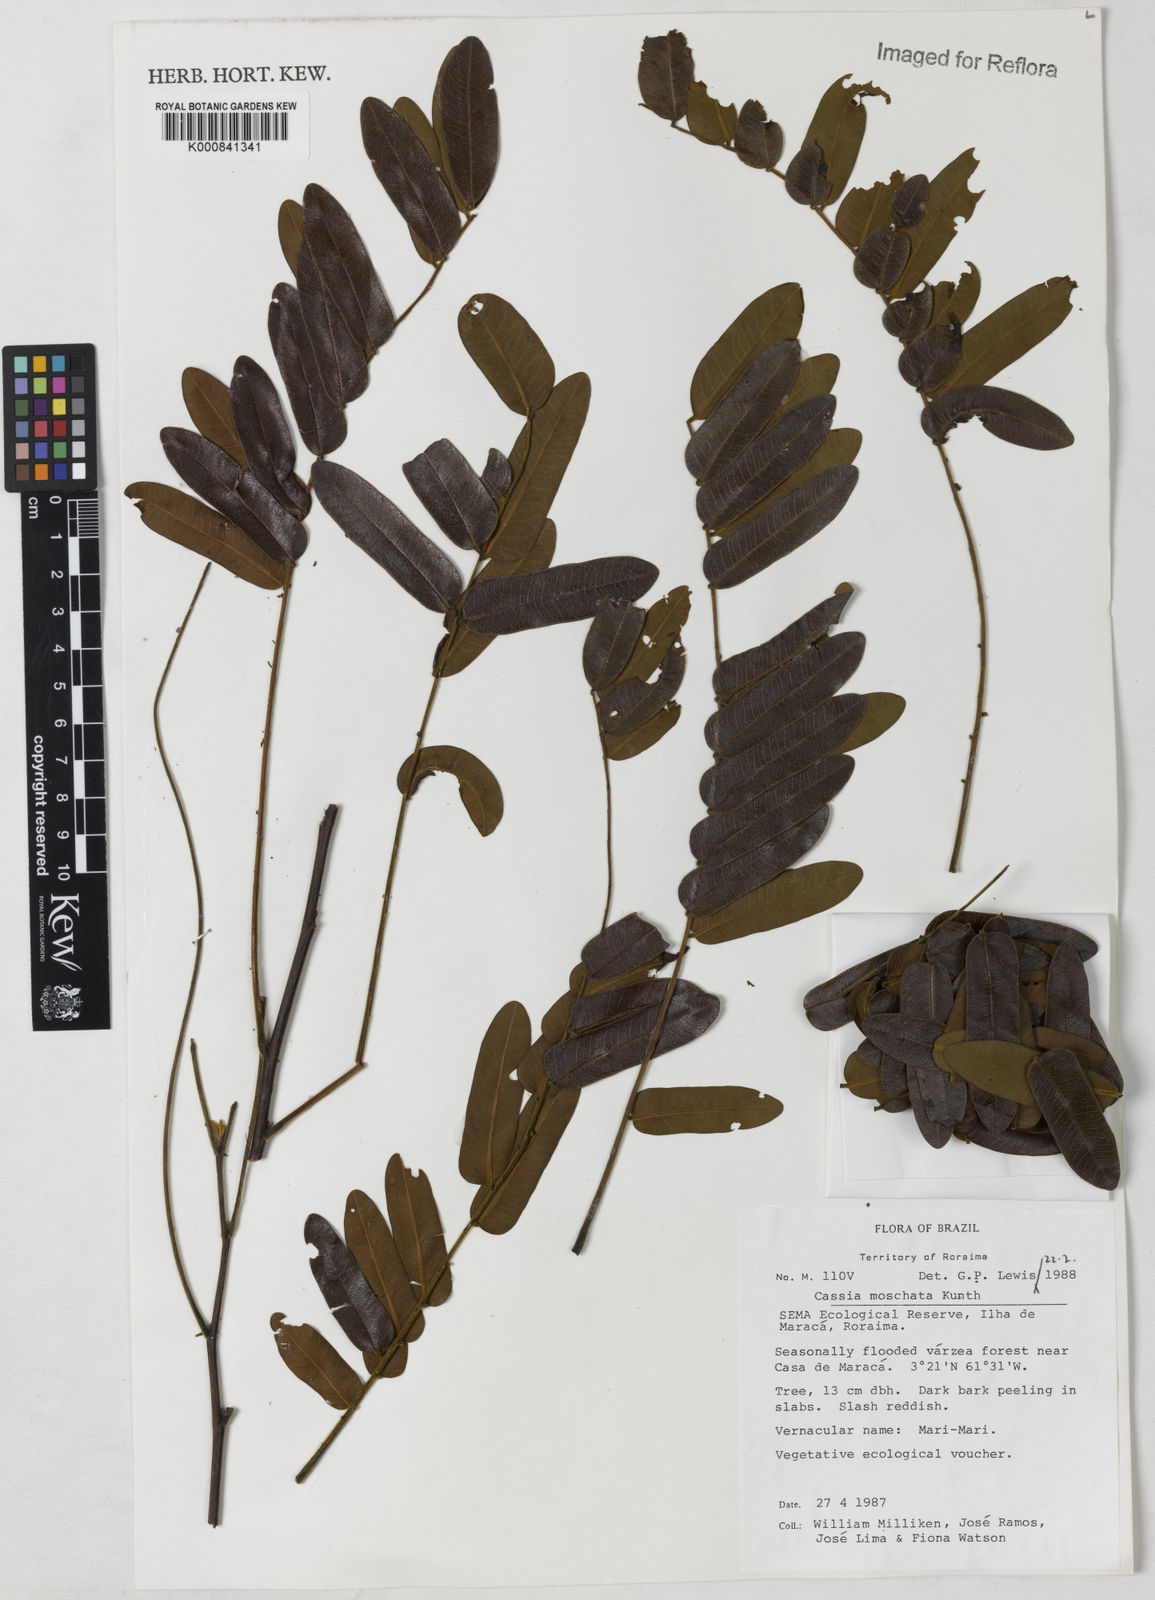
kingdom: Plantae
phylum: Tracheophyta
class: Magnoliopsida
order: Fabales
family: Fabaceae
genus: Cassia
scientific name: Cassia moschata
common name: Bronze shower tree
